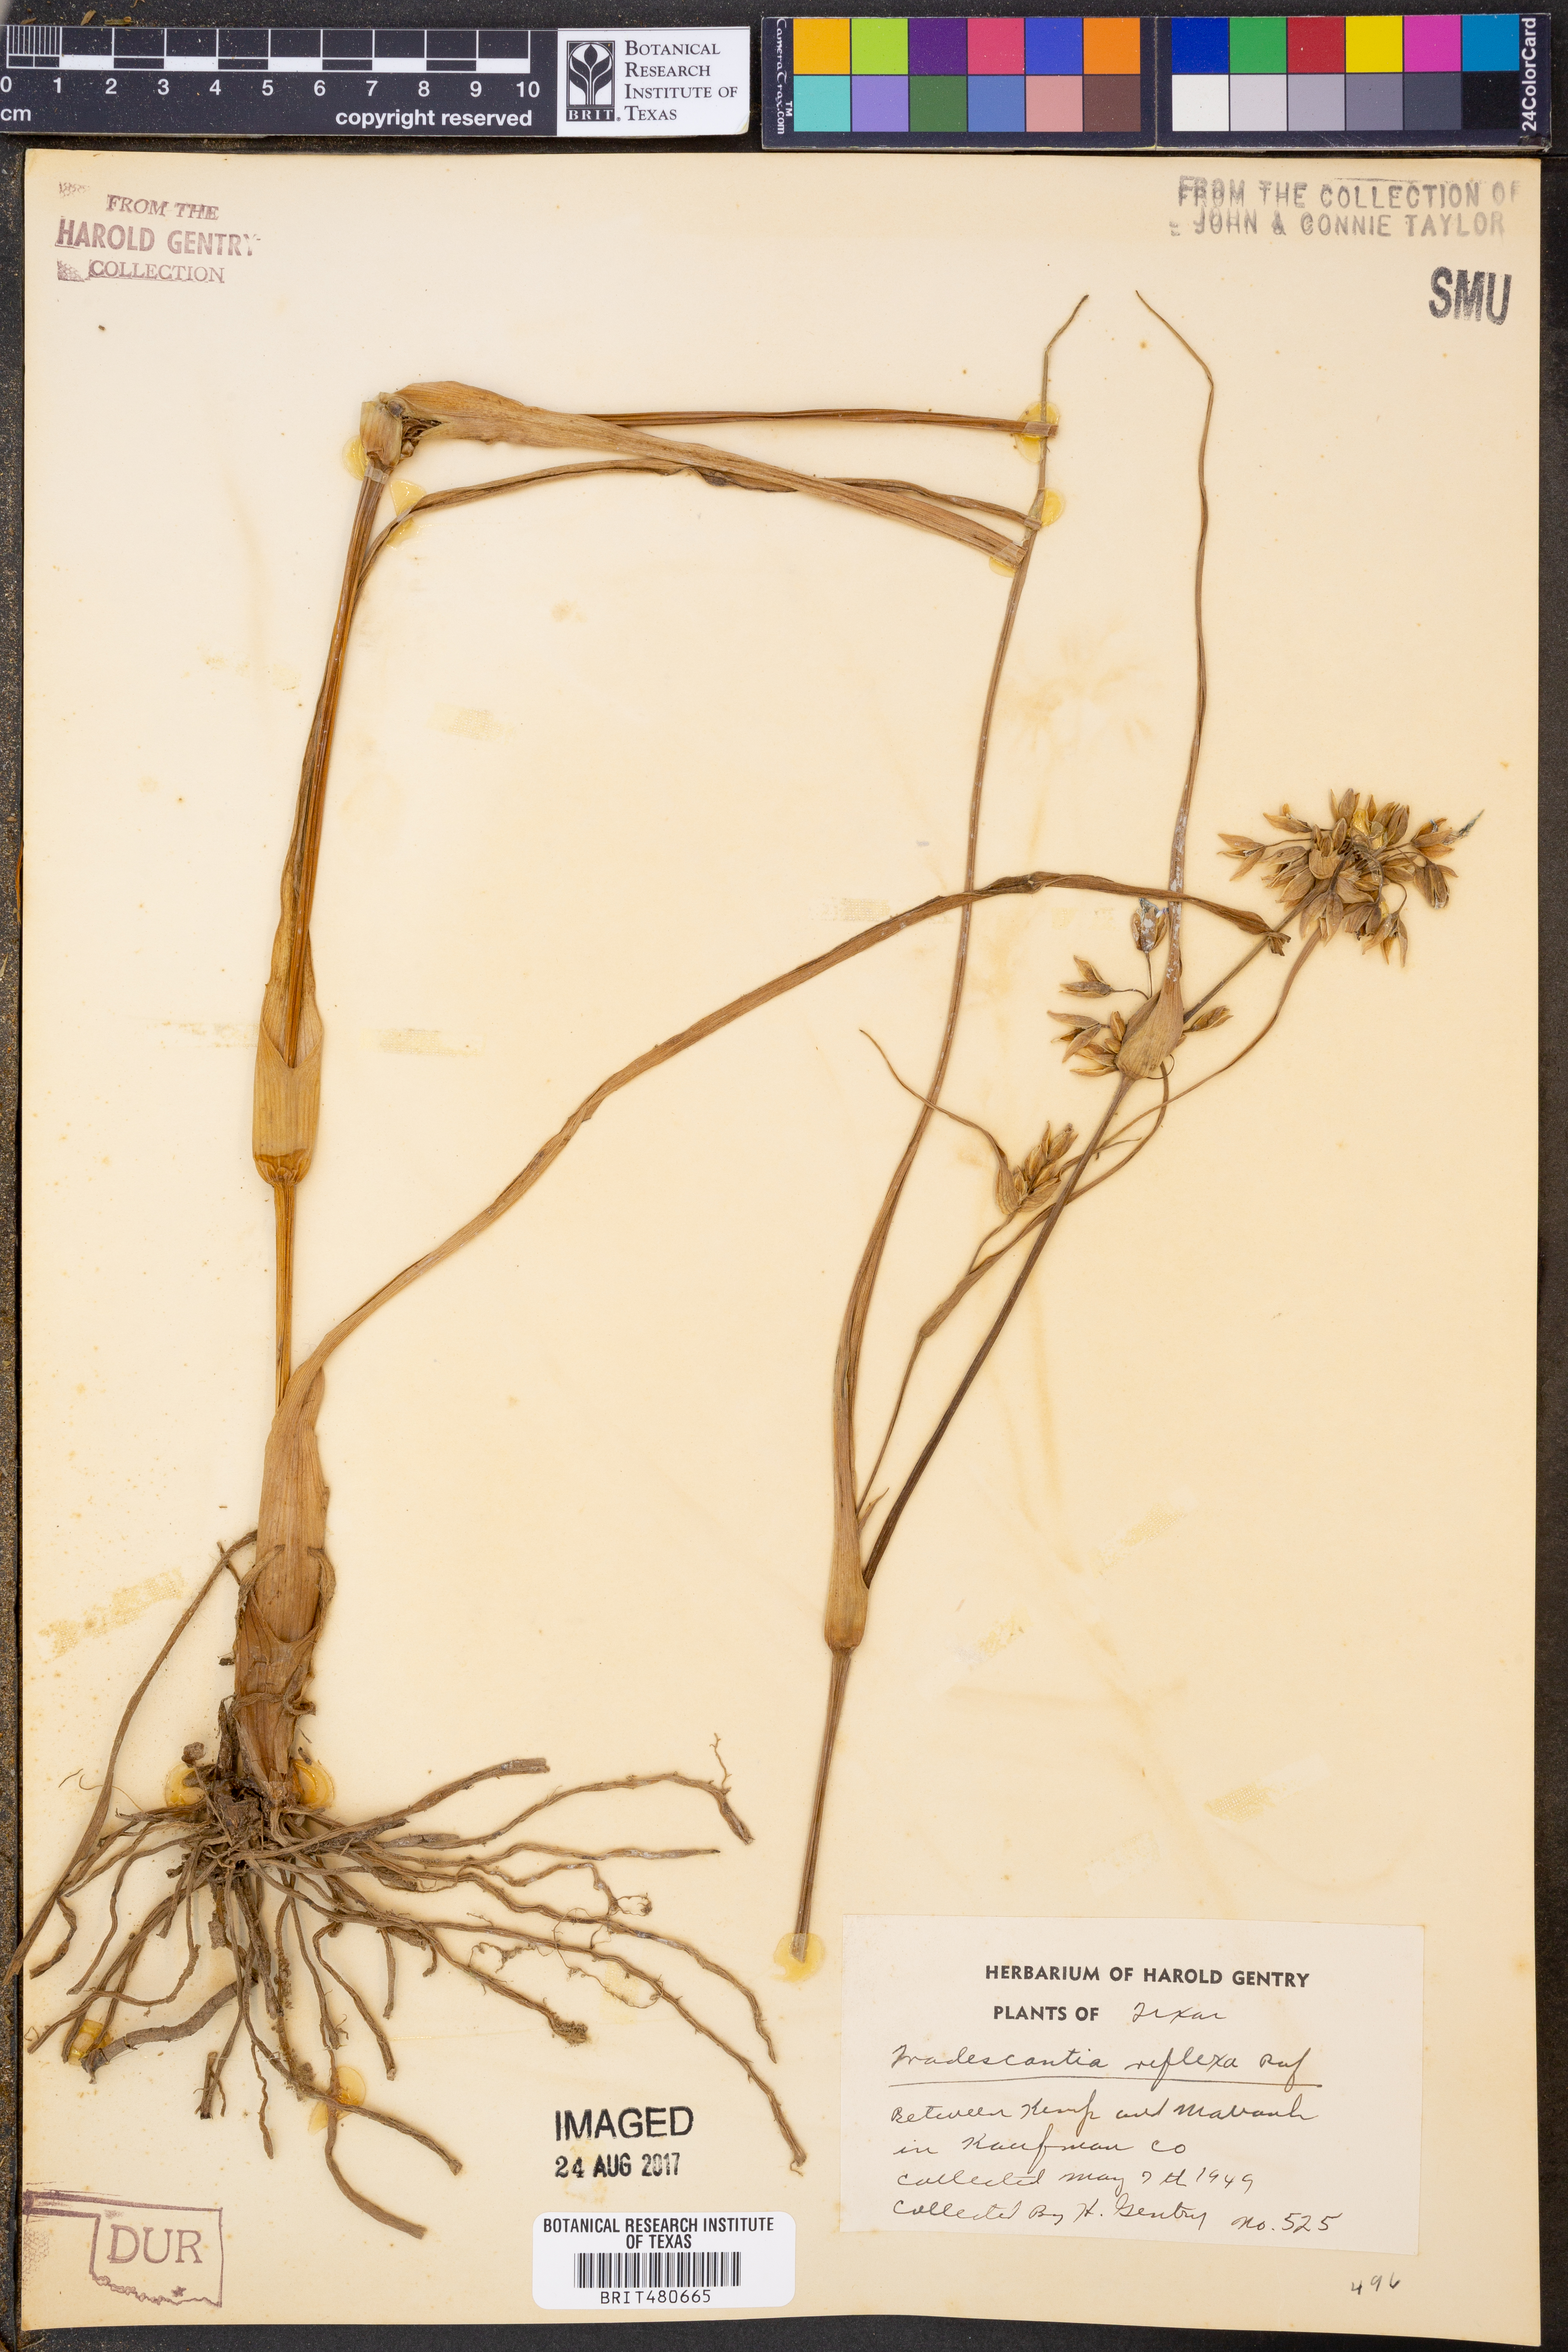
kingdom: Plantae
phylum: Tracheophyta
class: Liliopsida
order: Commelinales
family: Commelinaceae
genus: Tradescantia
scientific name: Tradescantia ohiensis
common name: Ohio spiderwort
